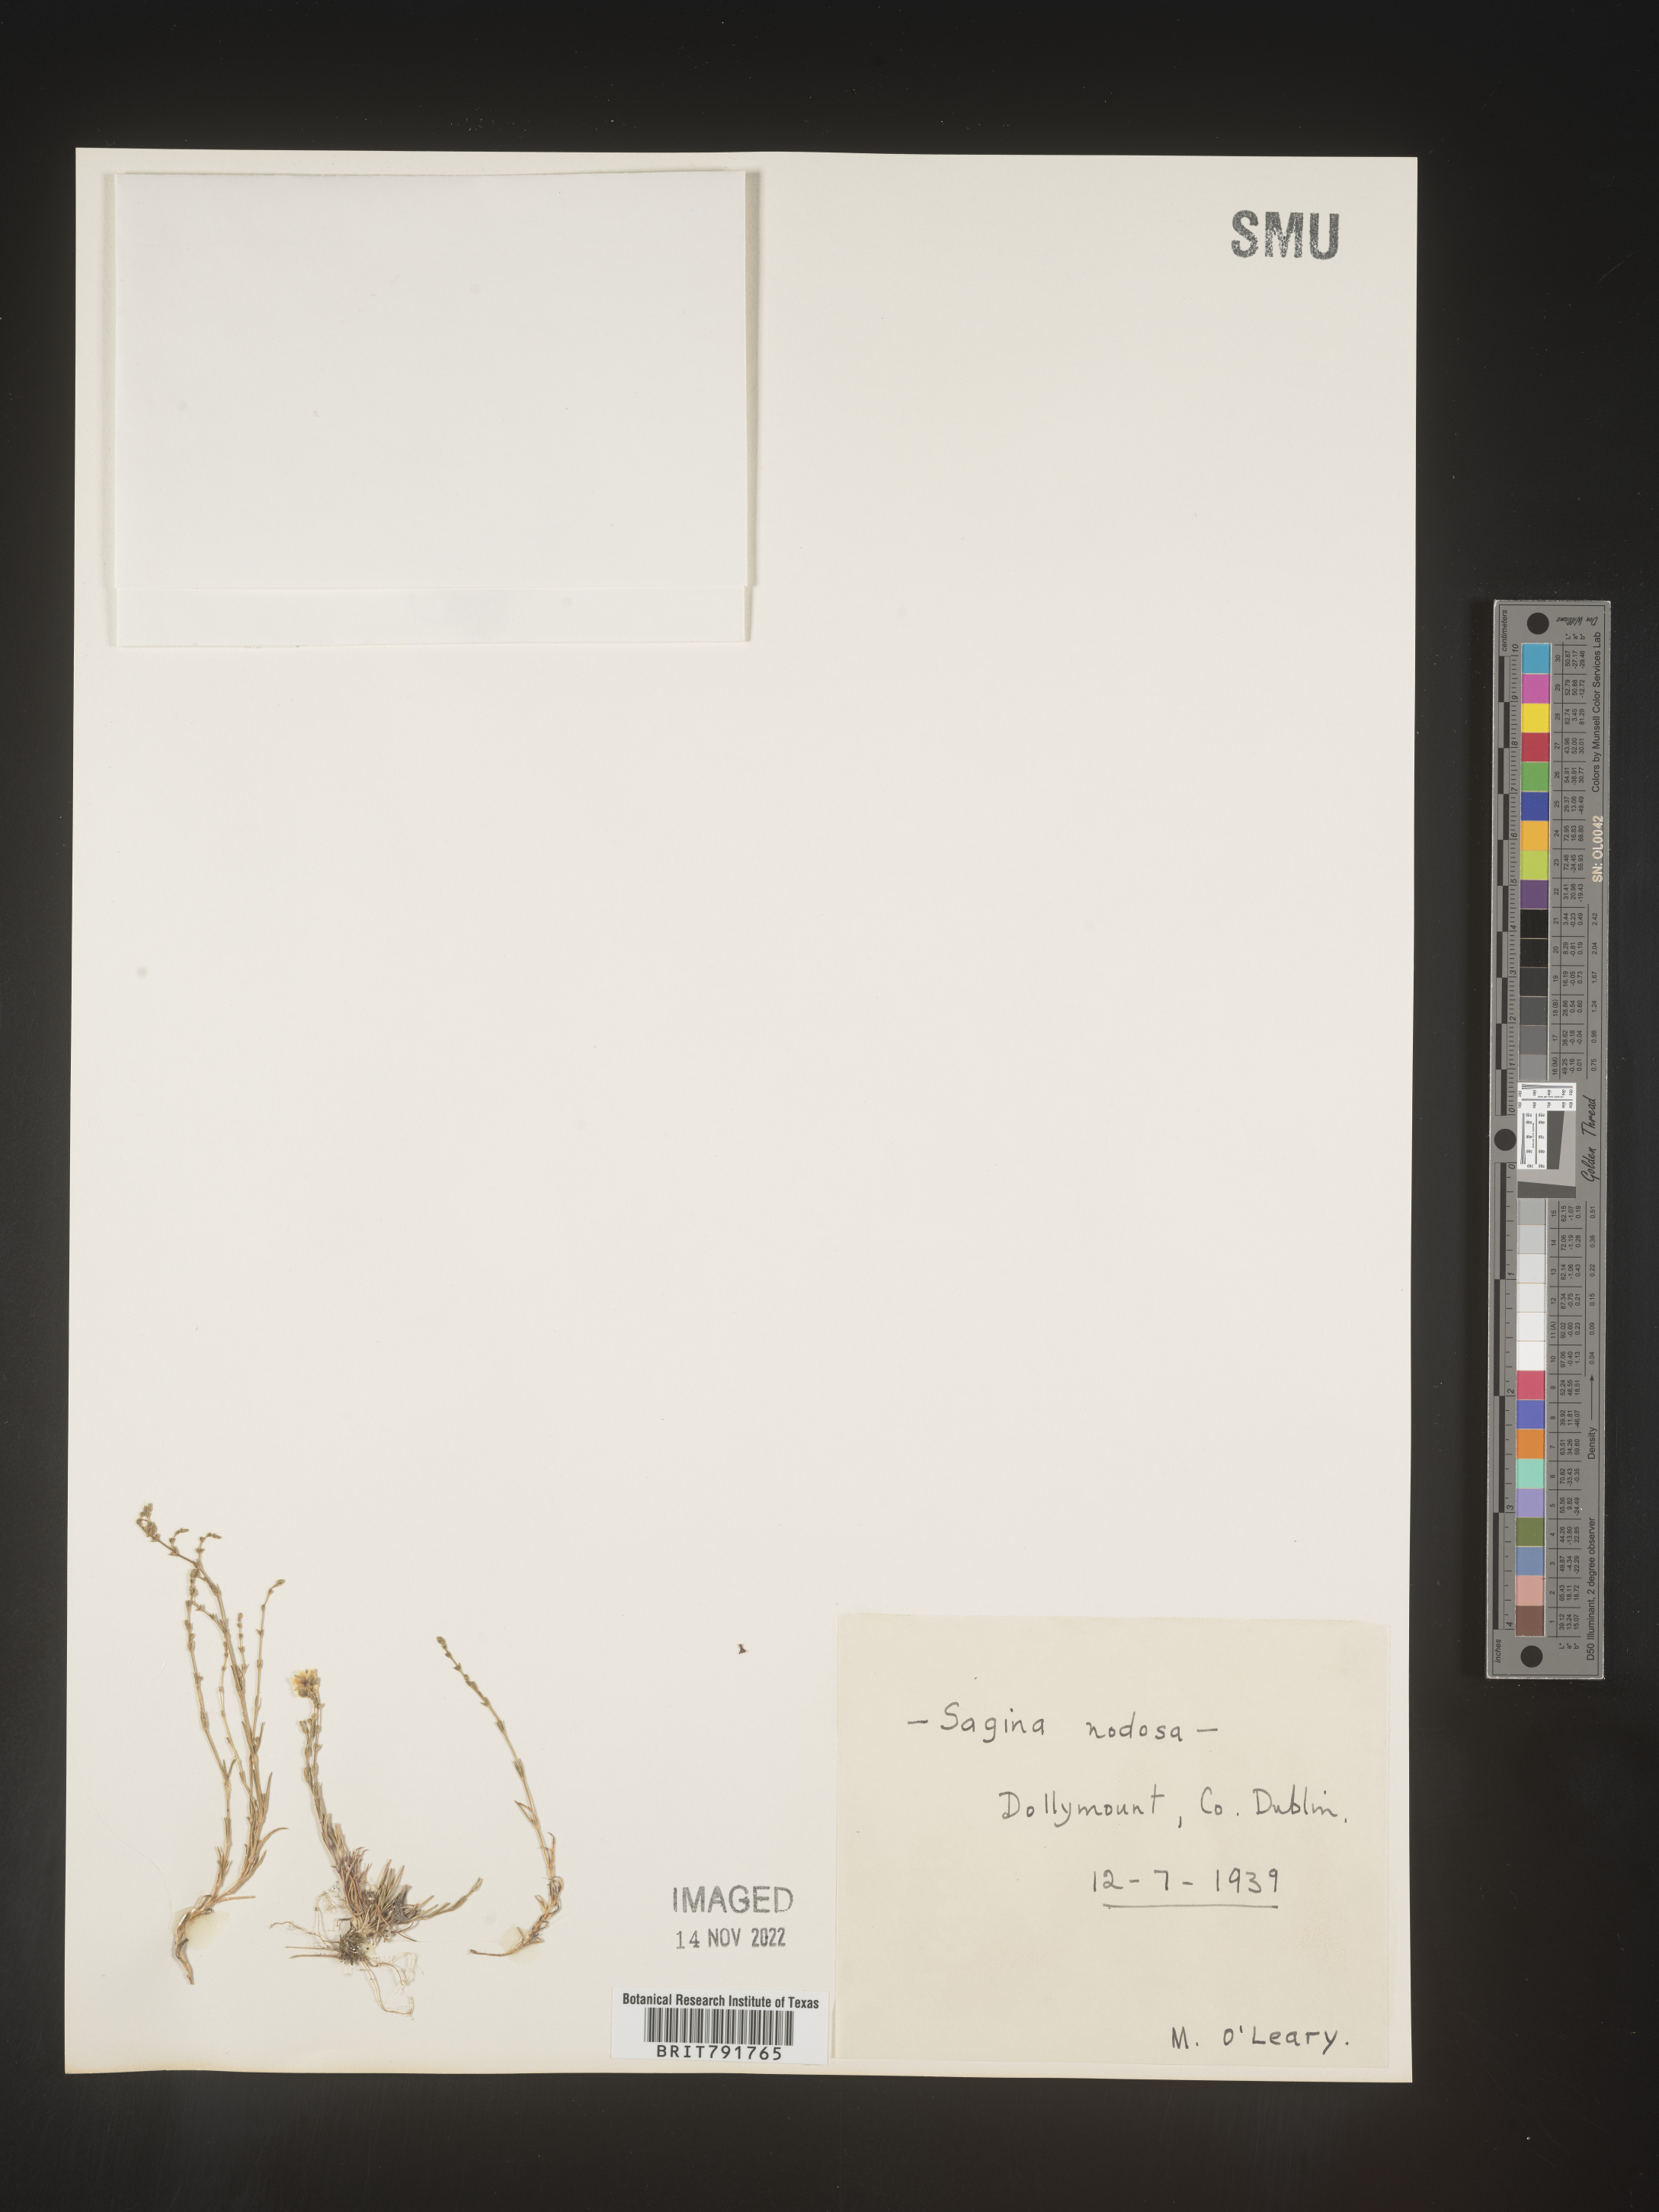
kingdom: Plantae
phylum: Tracheophyta
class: Magnoliopsida
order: Caryophyllales
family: Caryophyllaceae
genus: Sagina
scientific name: Sagina
